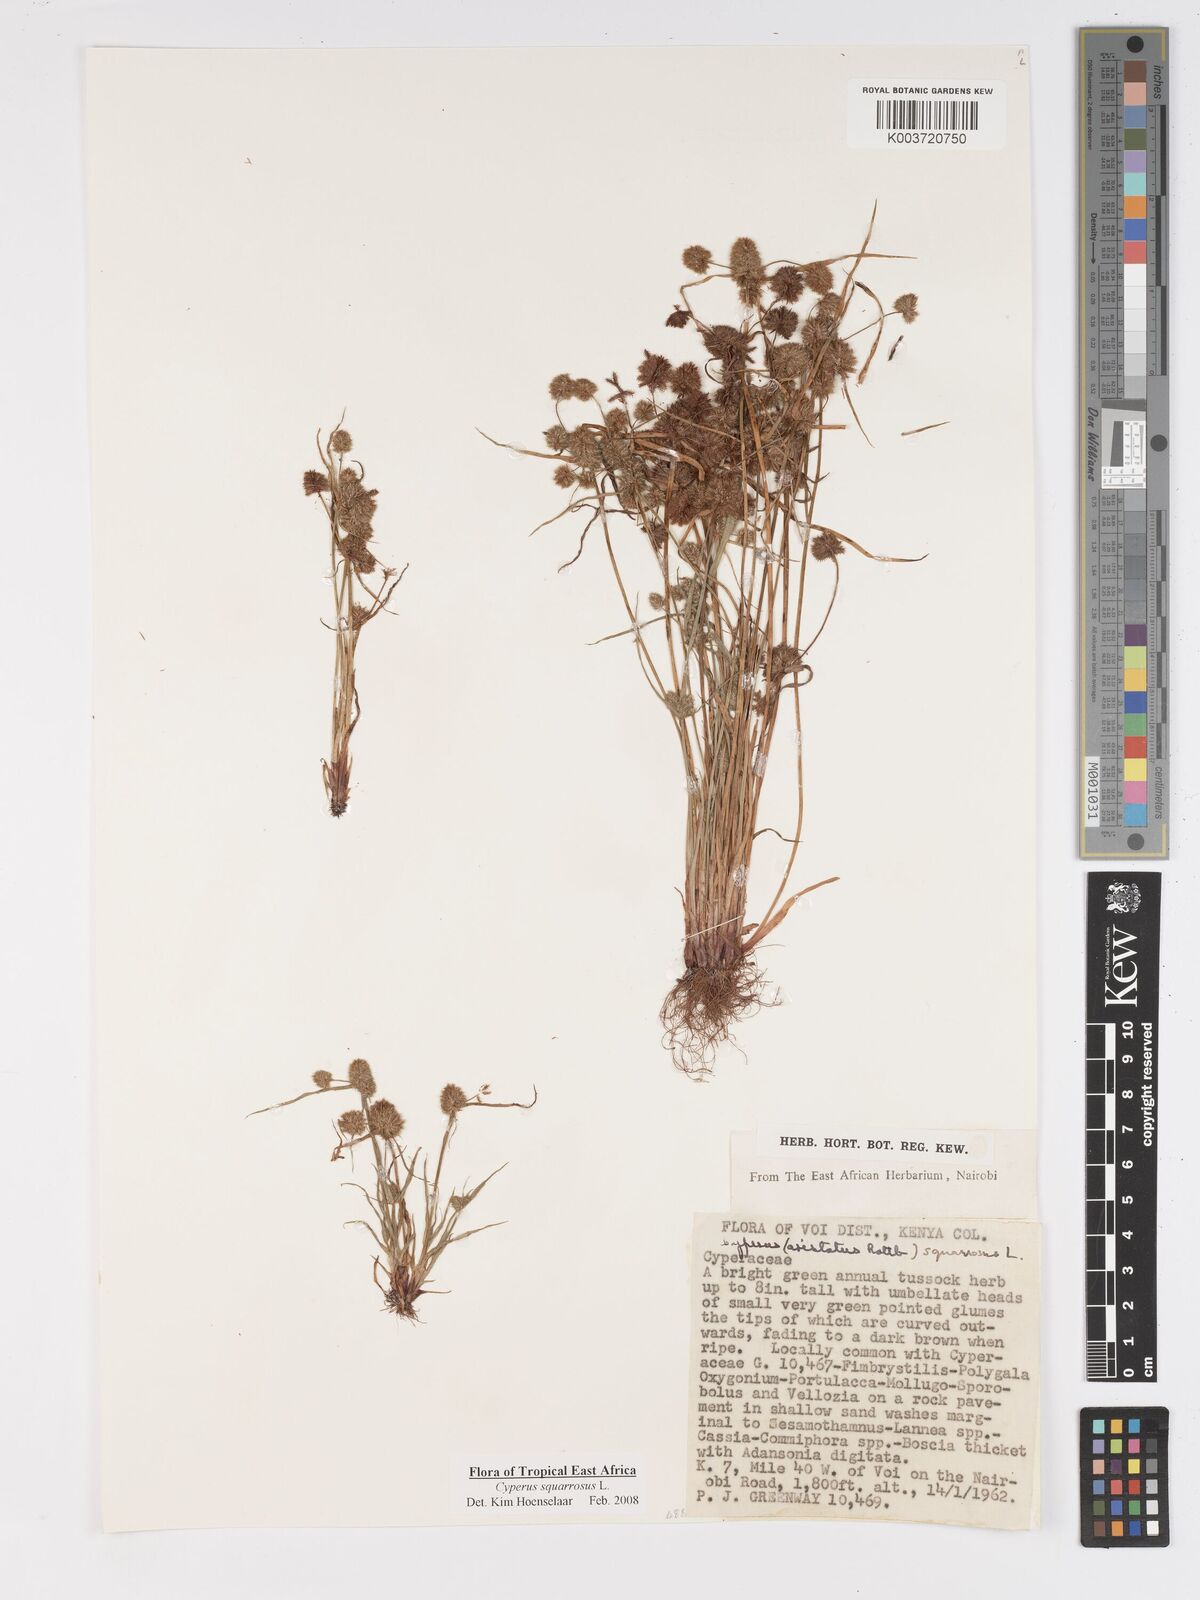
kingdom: Plantae
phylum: Tracheophyta
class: Liliopsida
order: Poales
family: Cyperaceae
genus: Cyperus
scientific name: Cyperus squarrosus
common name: Awned cyperus
